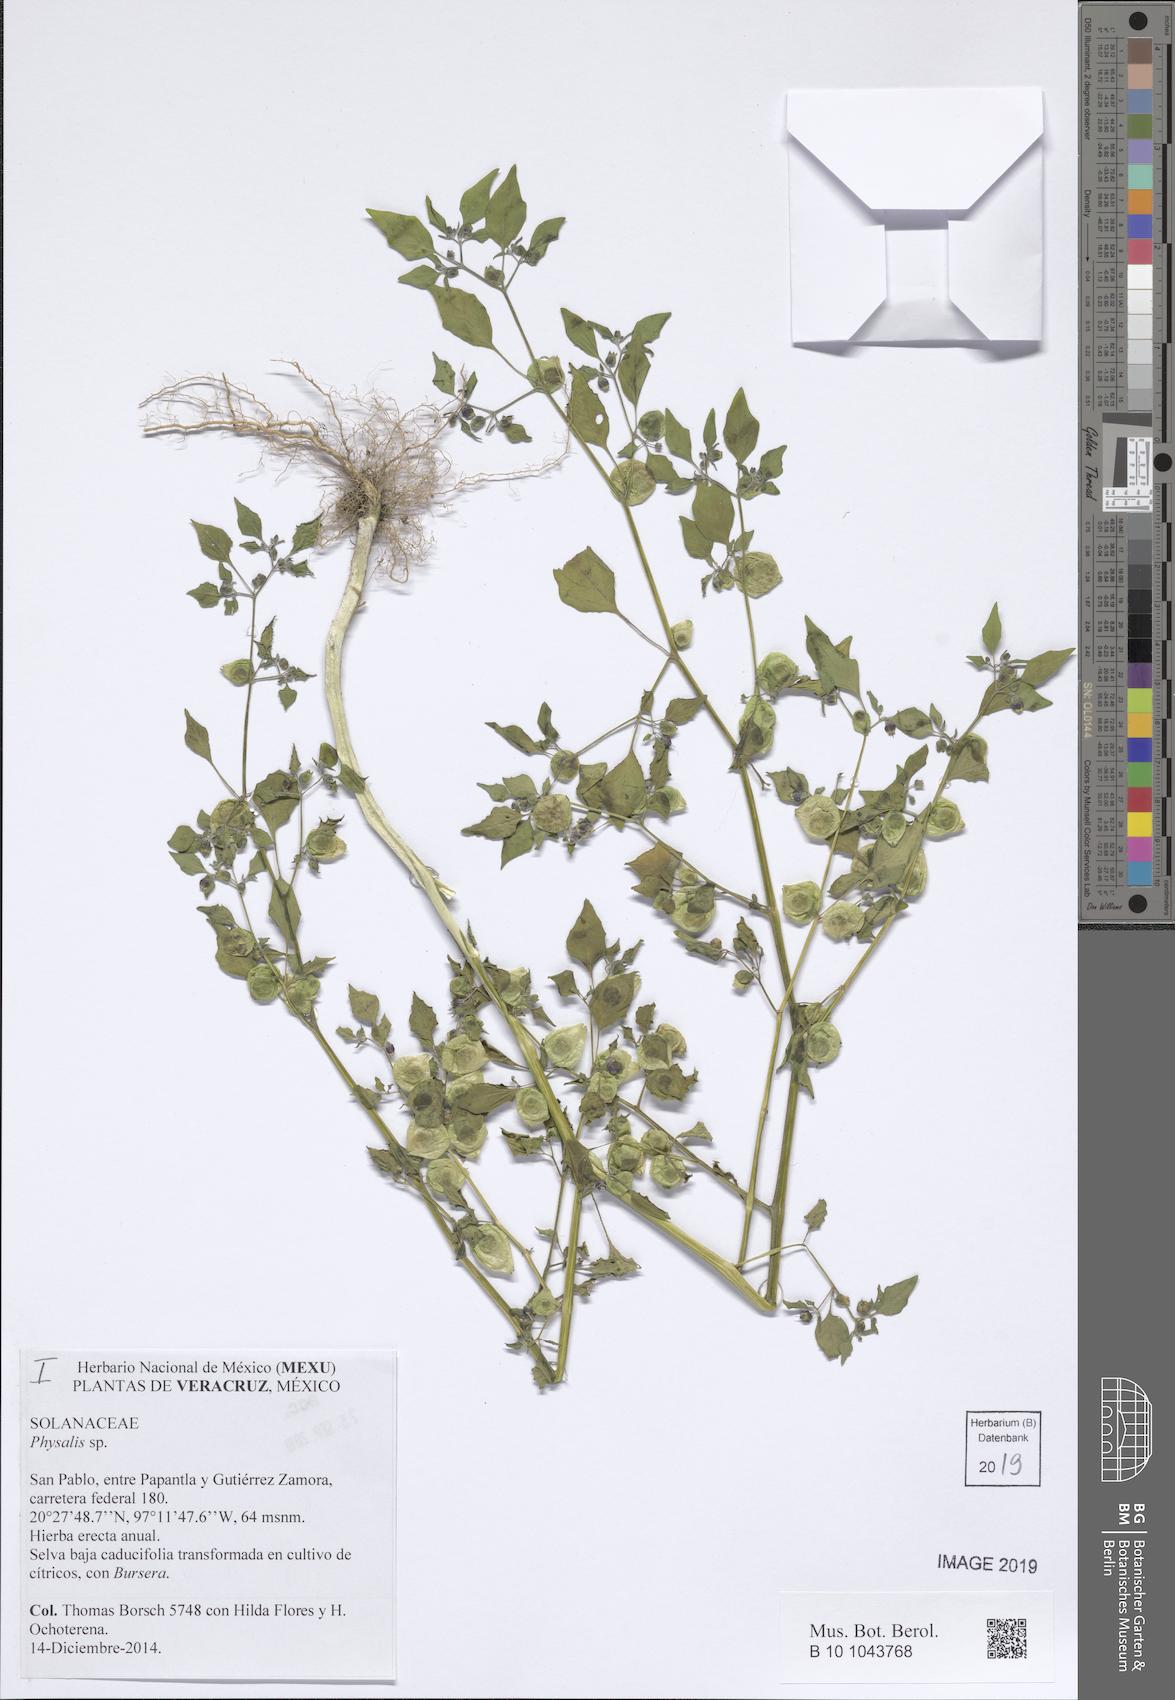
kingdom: Plantae
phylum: Tracheophyta
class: Magnoliopsida
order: Solanales
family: Solanaceae
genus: Physalis
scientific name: Physalis
